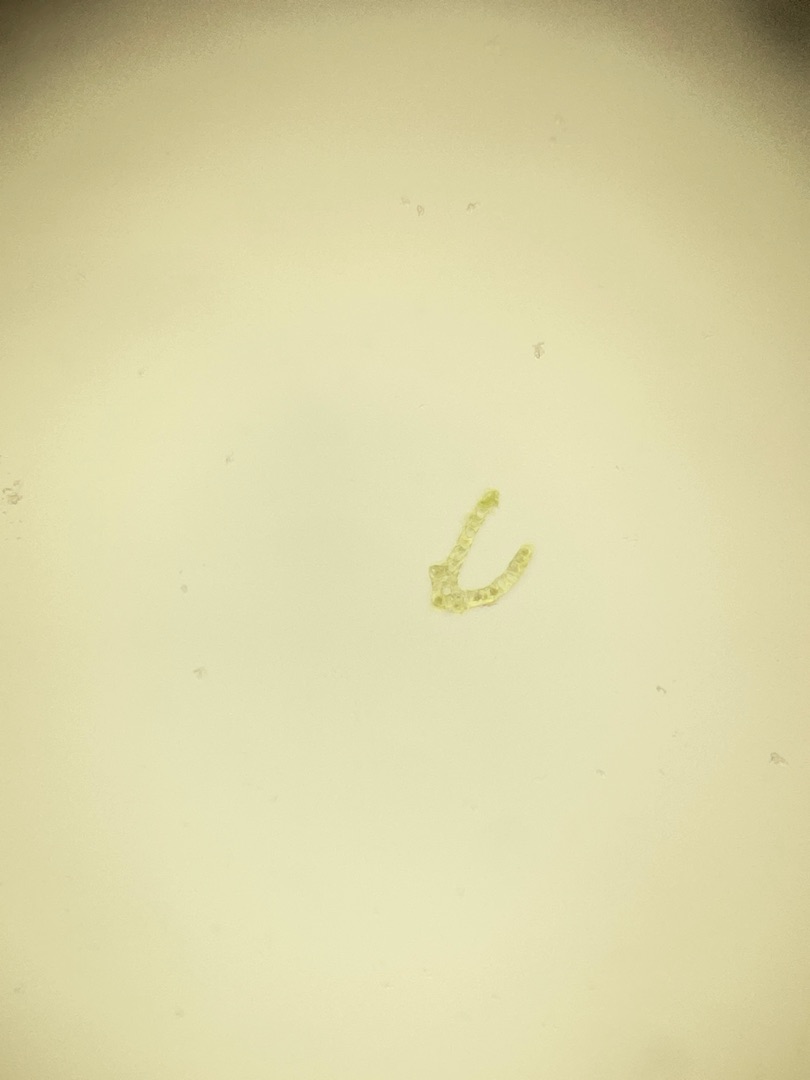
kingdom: Plantae
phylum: Bryophyta
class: Bryopsida
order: Dicranales
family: Dicranaceae
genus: Dicranum
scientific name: Dicranum scoparium
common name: Almindelig kløvtand
